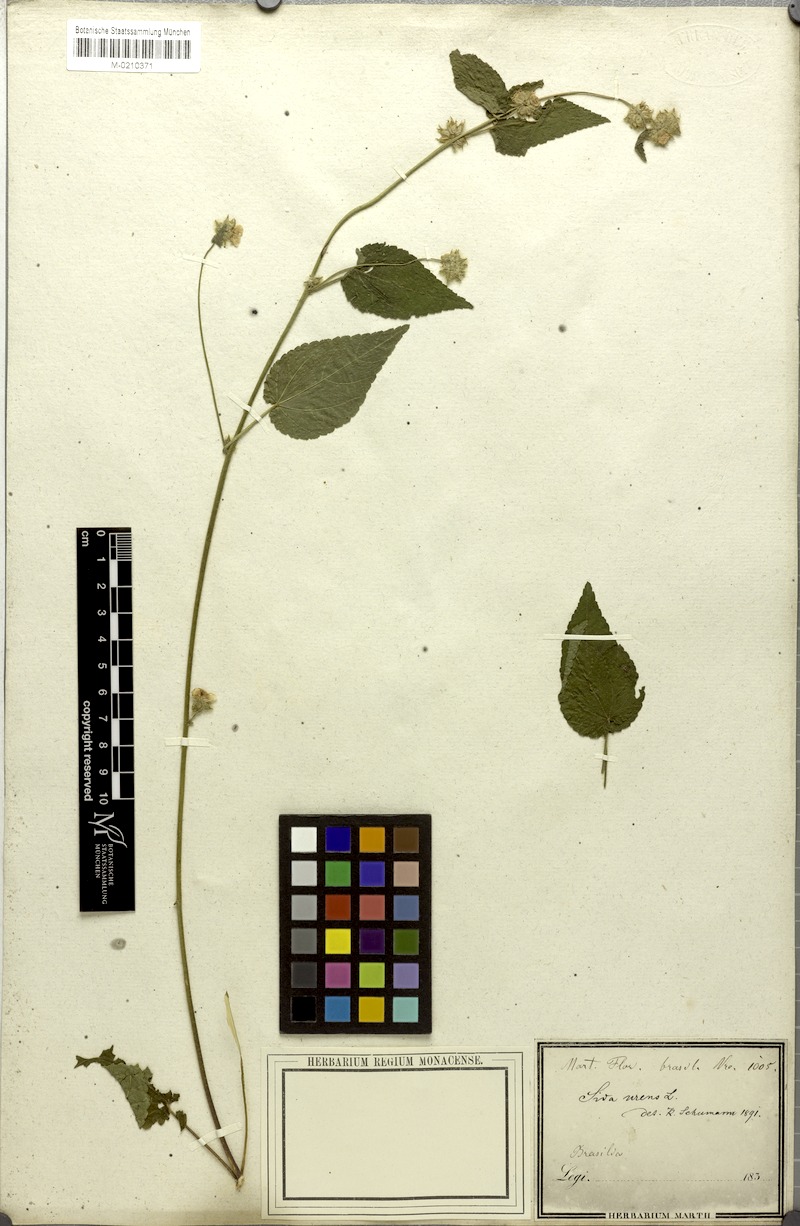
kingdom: Plantae
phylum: Tracheophyta
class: Magnoliopsida
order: Malvales
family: Malvaceae
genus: Sida
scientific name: Sida urens
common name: Tropical fanpetals
